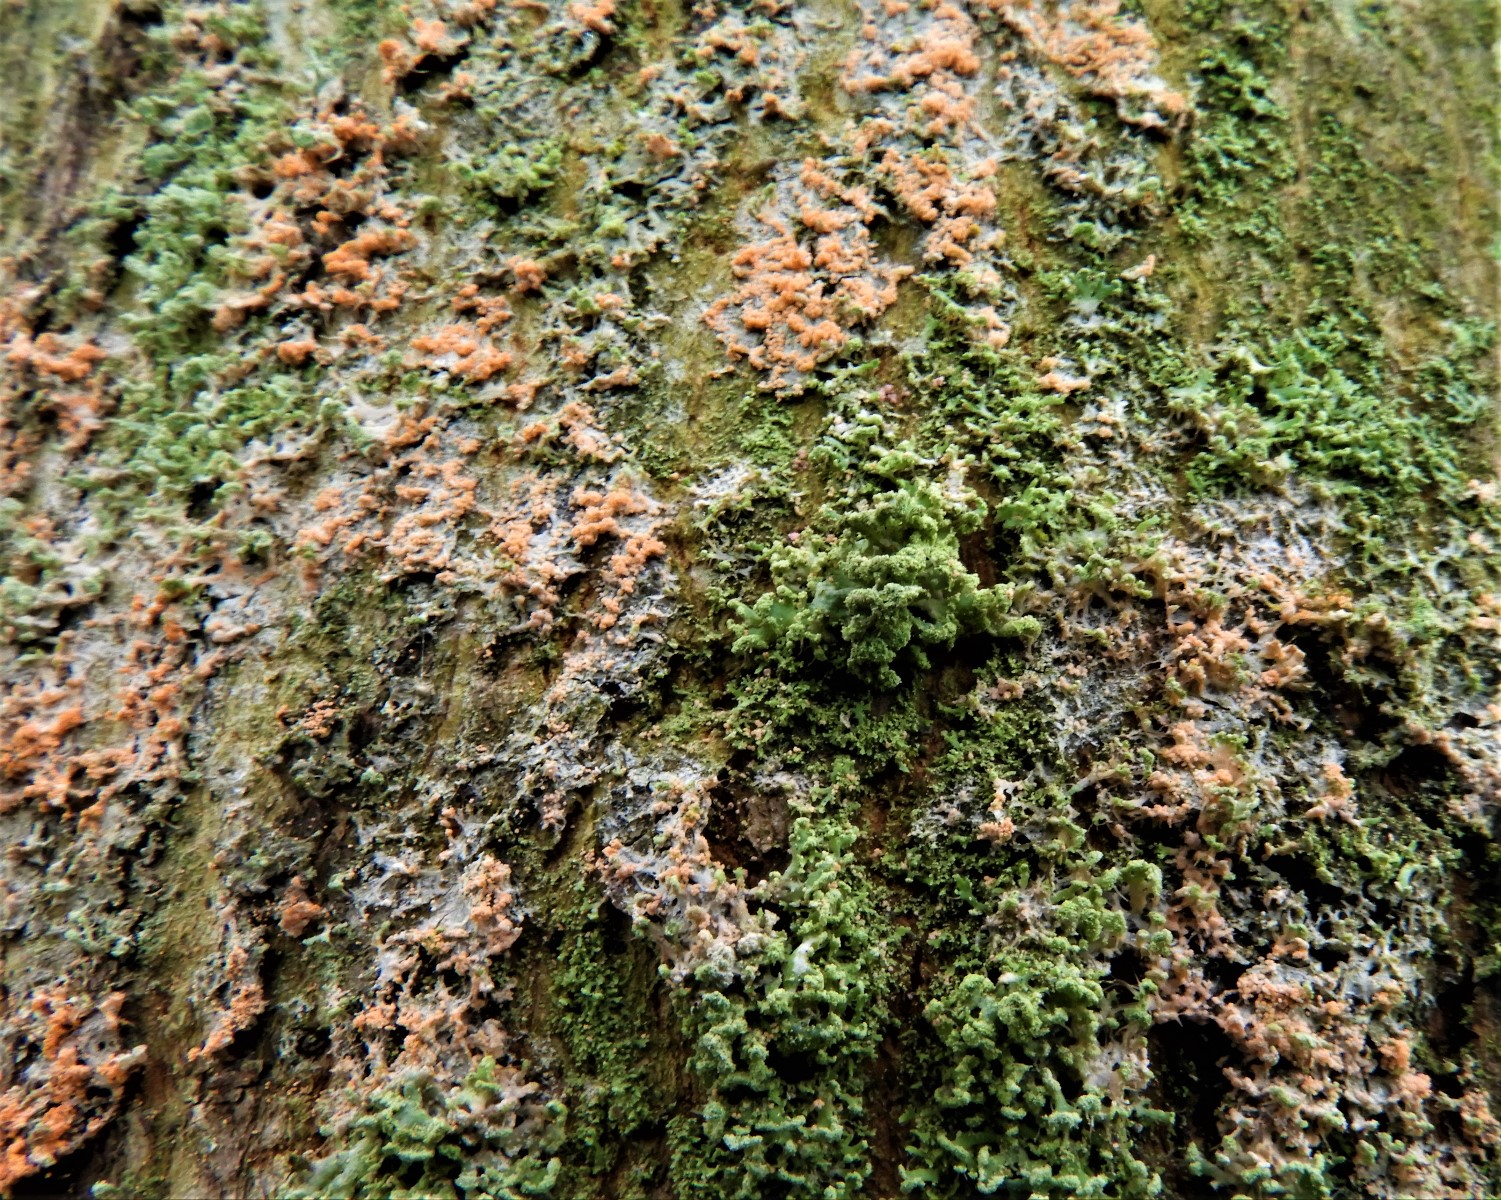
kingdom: Fungi
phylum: Basidiomycota
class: Agaricomycetes
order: Corticiales
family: Corticiaceae
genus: Erythricium
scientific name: Erythricium aurantiacum
